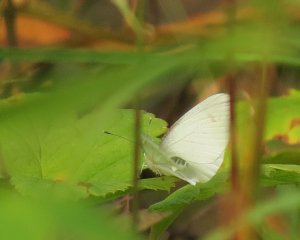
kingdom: Animalia
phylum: Arthropoda
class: Insecta
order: Lepidoptera
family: Pieridae
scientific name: Pieridae
